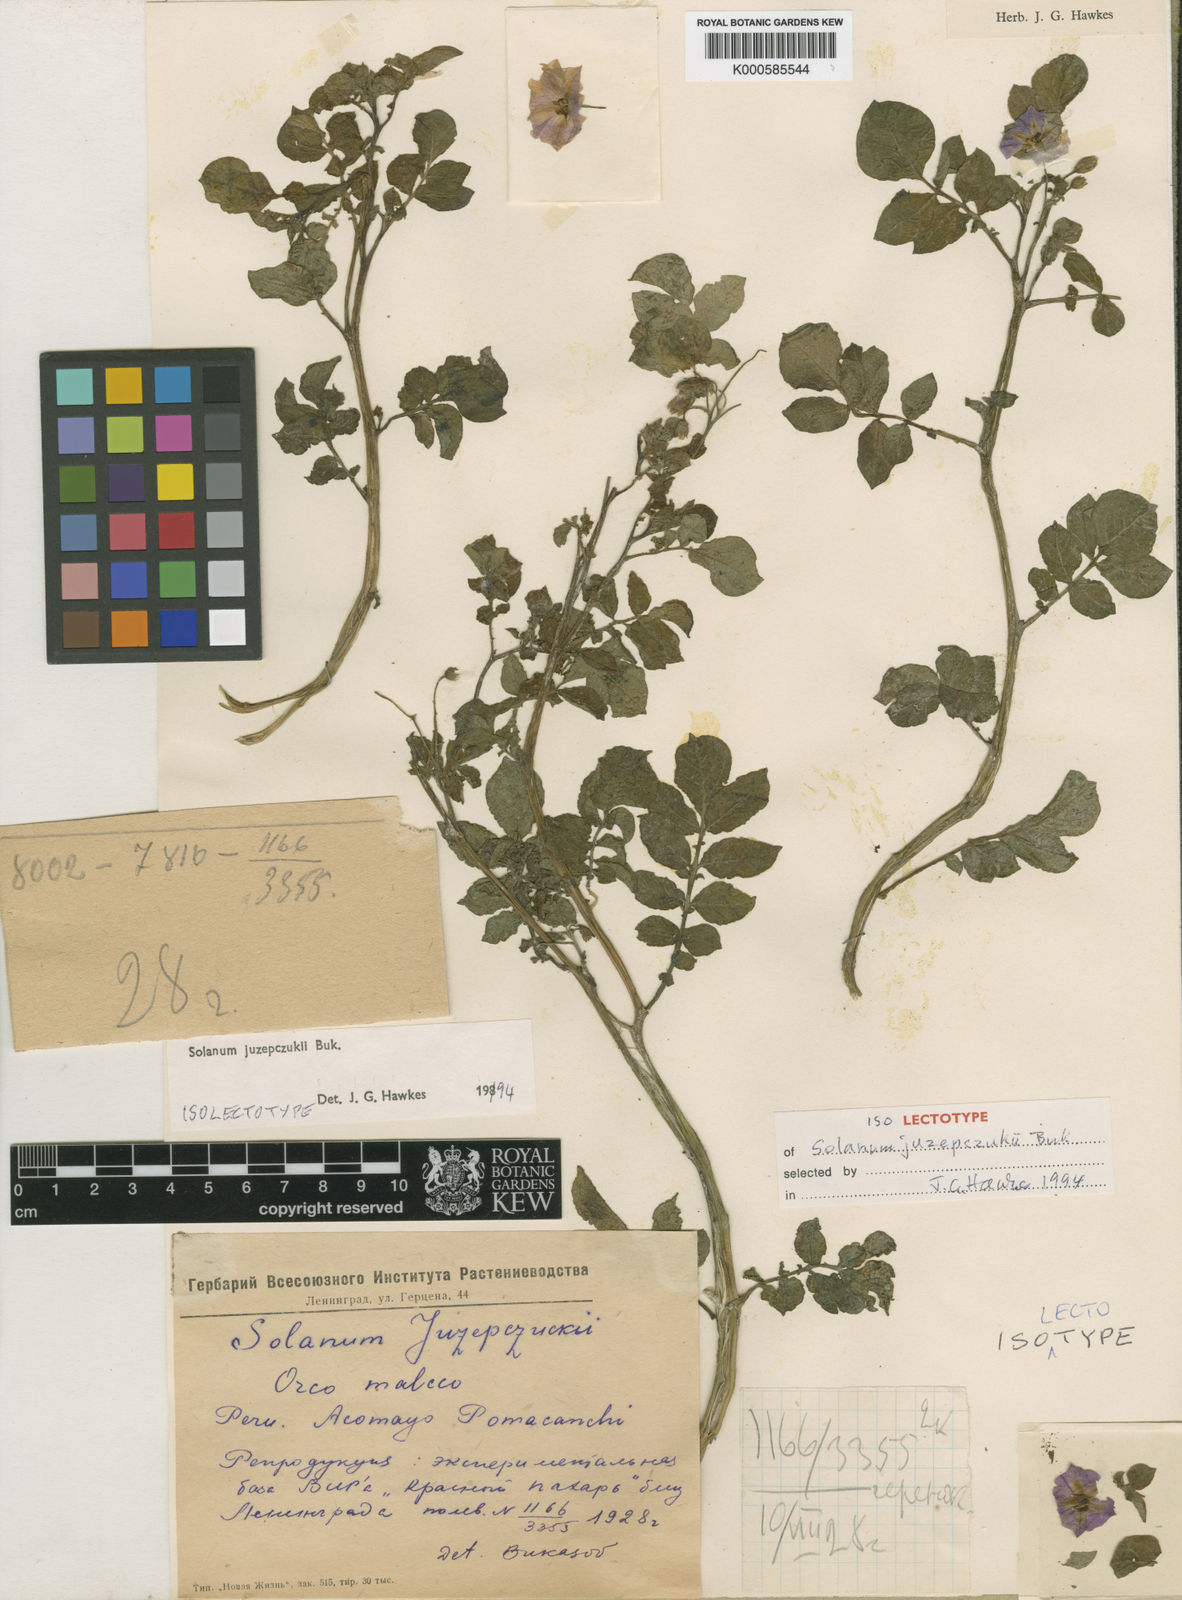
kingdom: Plantae
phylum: Tracheophyta
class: Magnoliopsida
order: Solanales
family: Solanaceae
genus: Solanum
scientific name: Solanum juzepczukii
